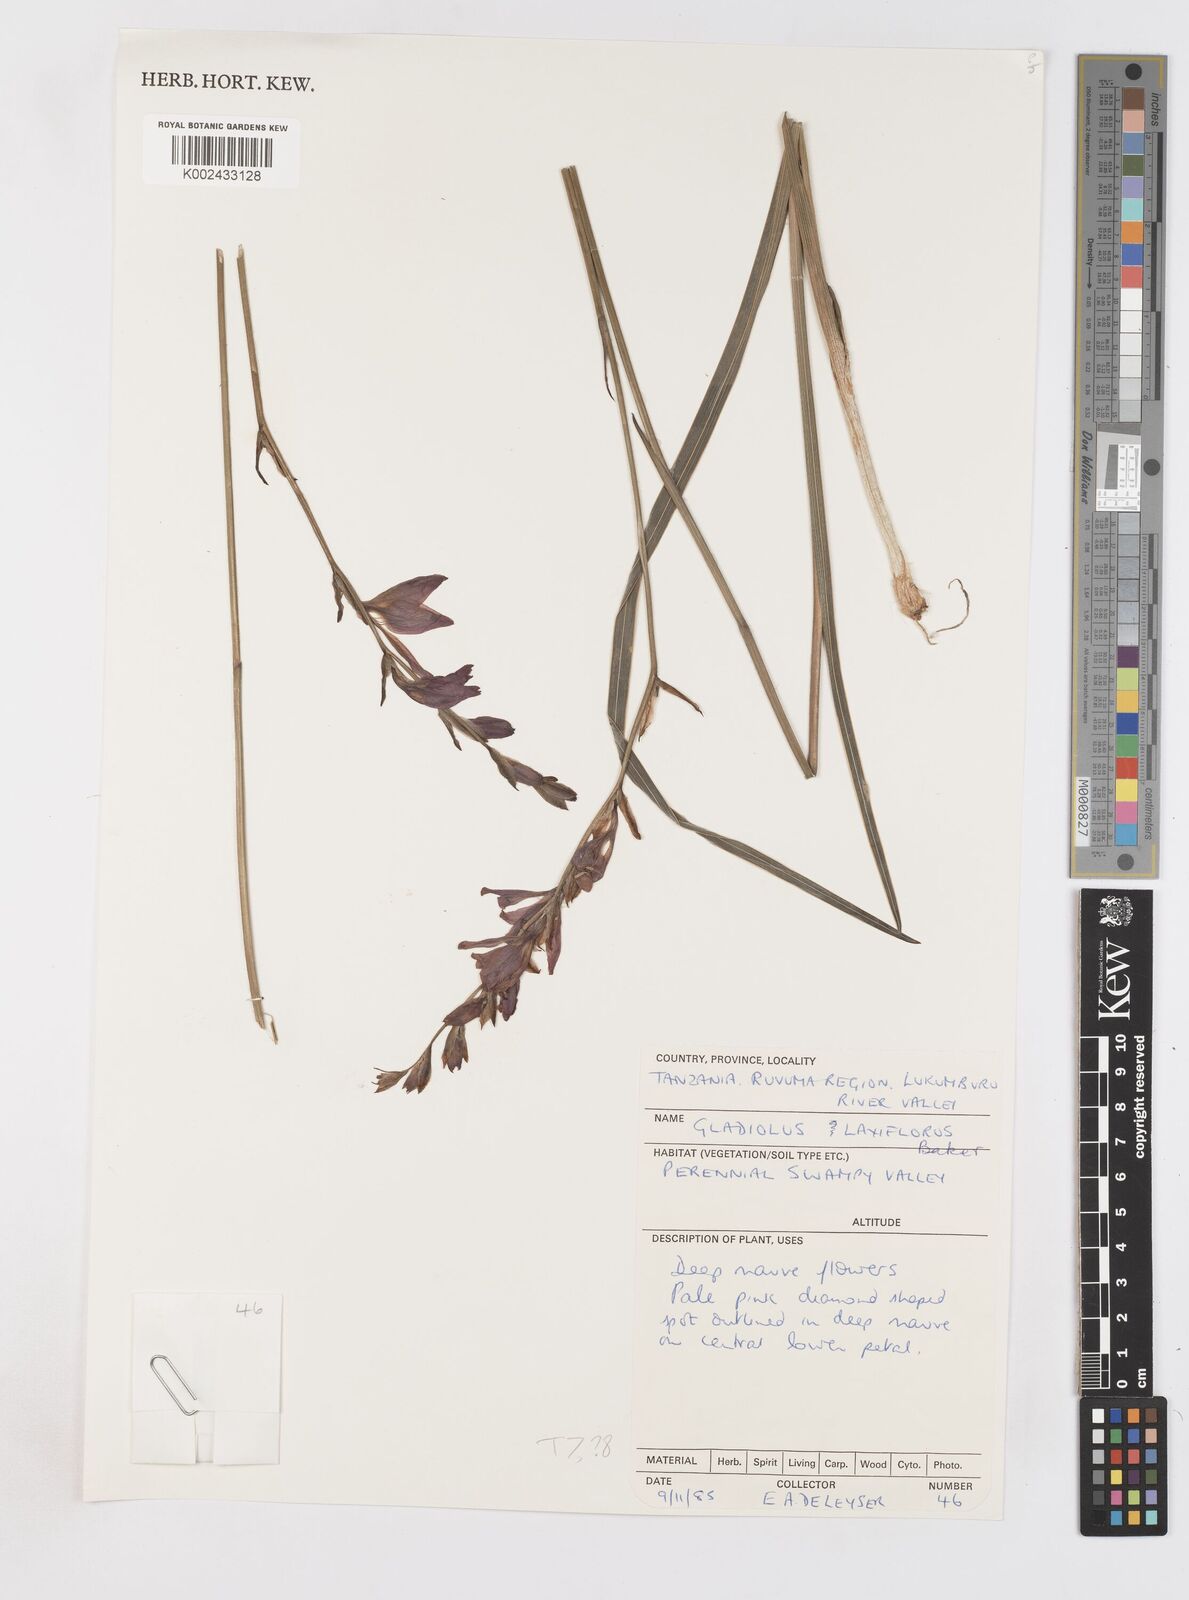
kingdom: Plantae
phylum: Tracheophyta
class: Liliopsida
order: Asparagales
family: Iridaceae
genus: Gladiolus
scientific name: Gladiolus laxiflorus
